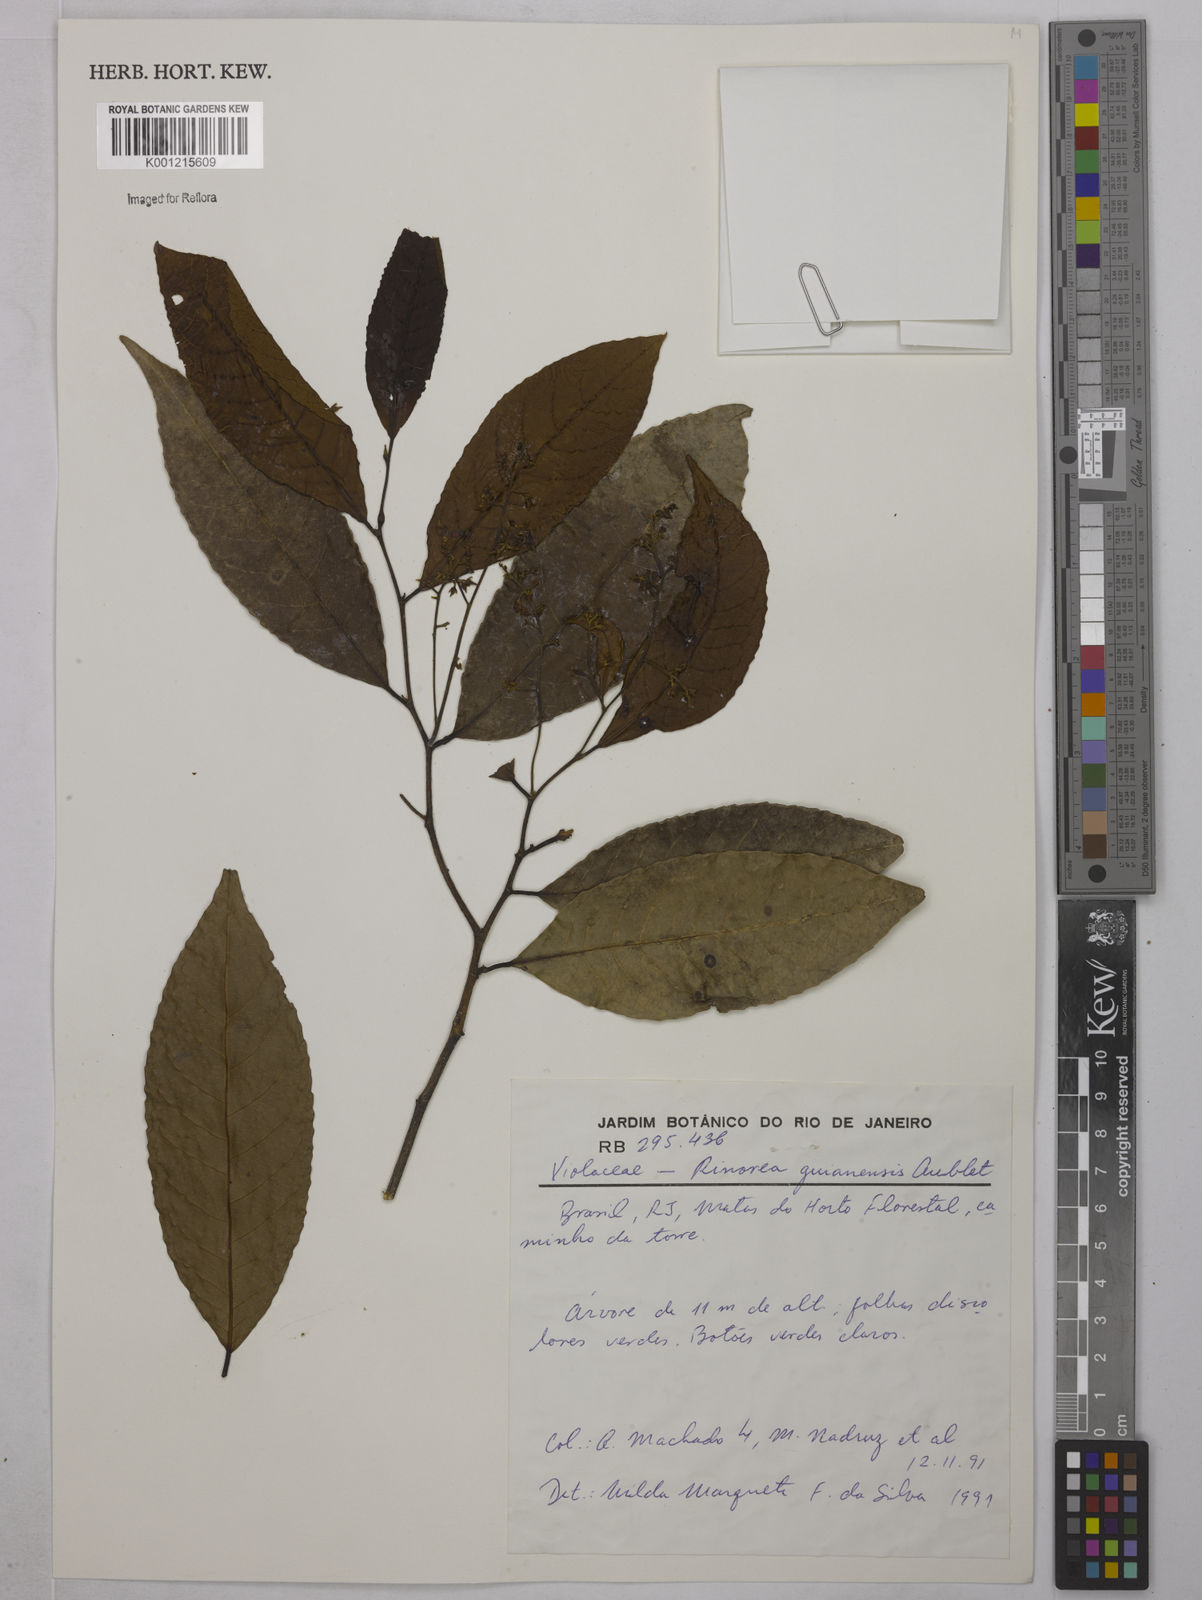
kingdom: Plantae
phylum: Tracheophyta
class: Magnoliopsida
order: Malpighiales
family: Violaceae
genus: Rinorea
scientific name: Rinorea guianensis
